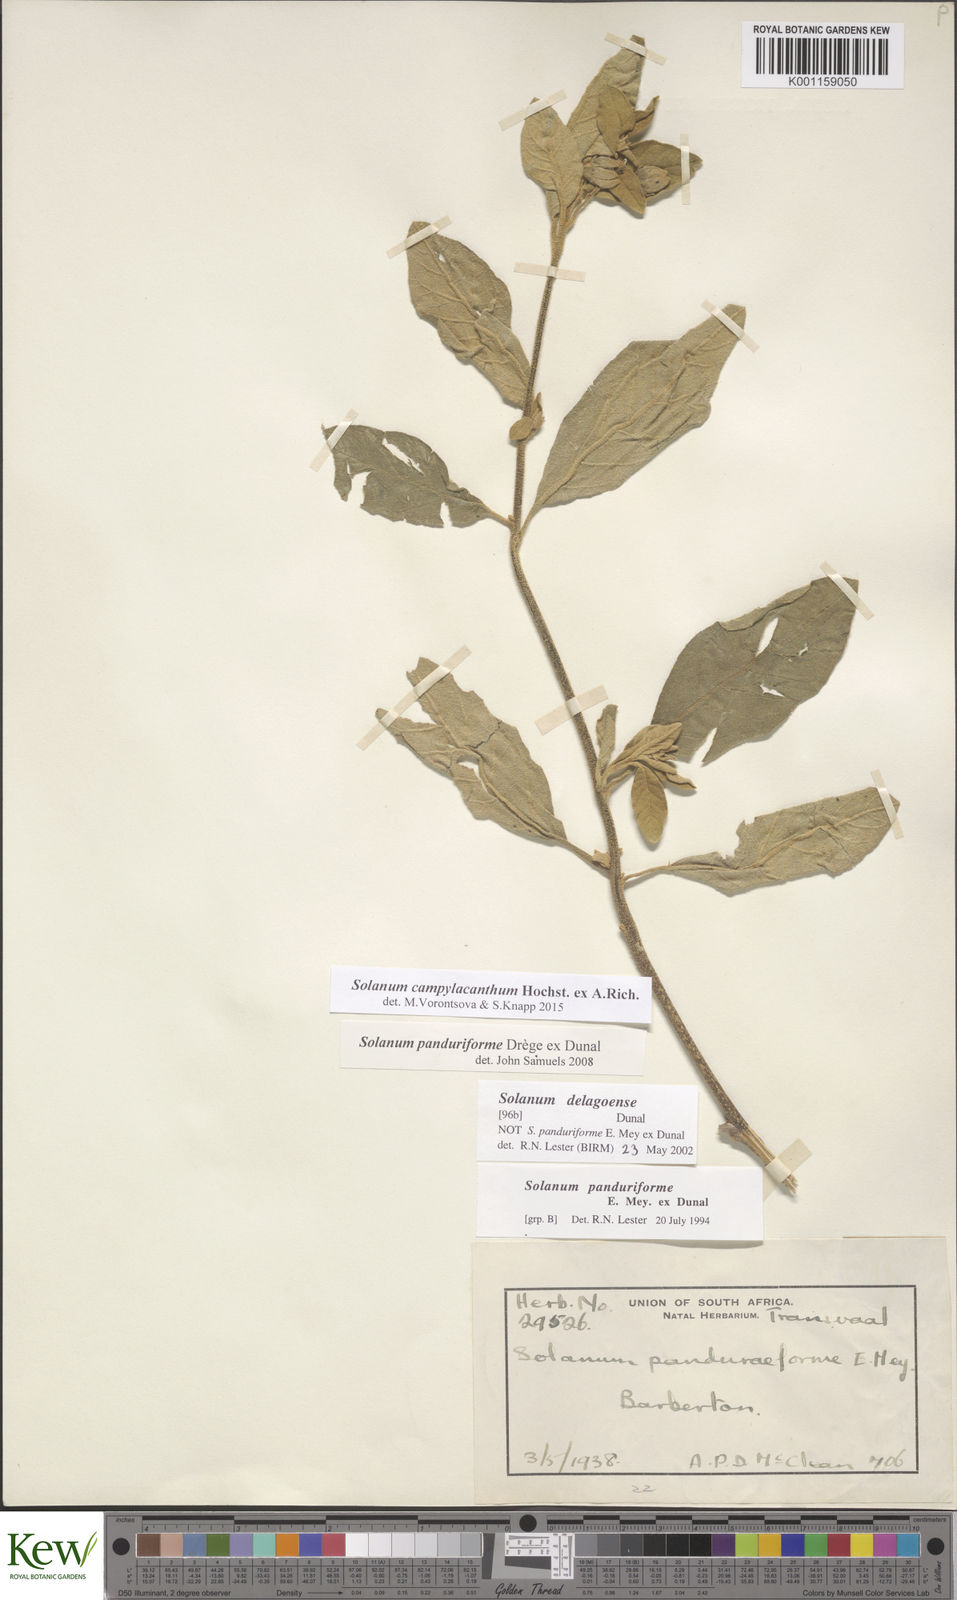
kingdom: Plantae
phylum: Tracheophyta
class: Magnoliopsida
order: Solanales
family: Solanaceae
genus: Solanum
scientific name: Solanum campylacanthum
